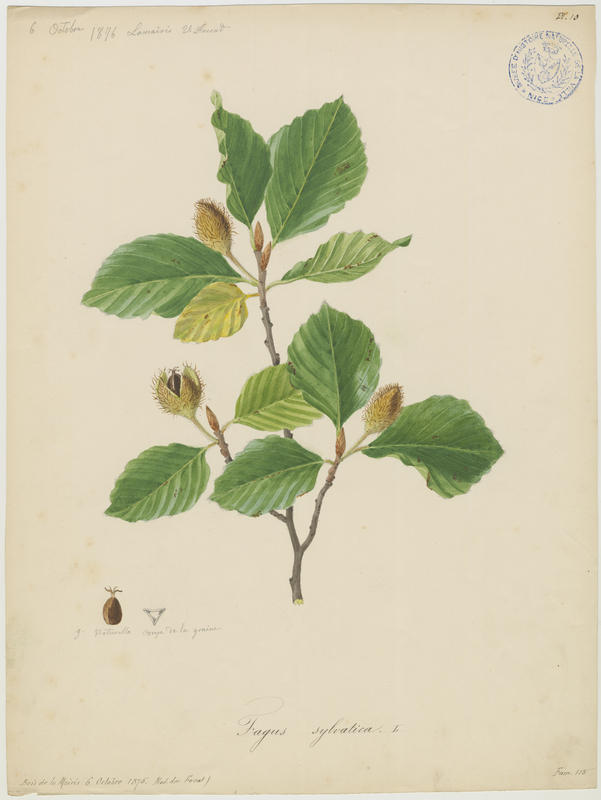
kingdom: Plantae
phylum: Tracheophyta
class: Magnoliopsida
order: Fagales
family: Fagaceae
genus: Fagus
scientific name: Fagus sylvatica
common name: Beech
